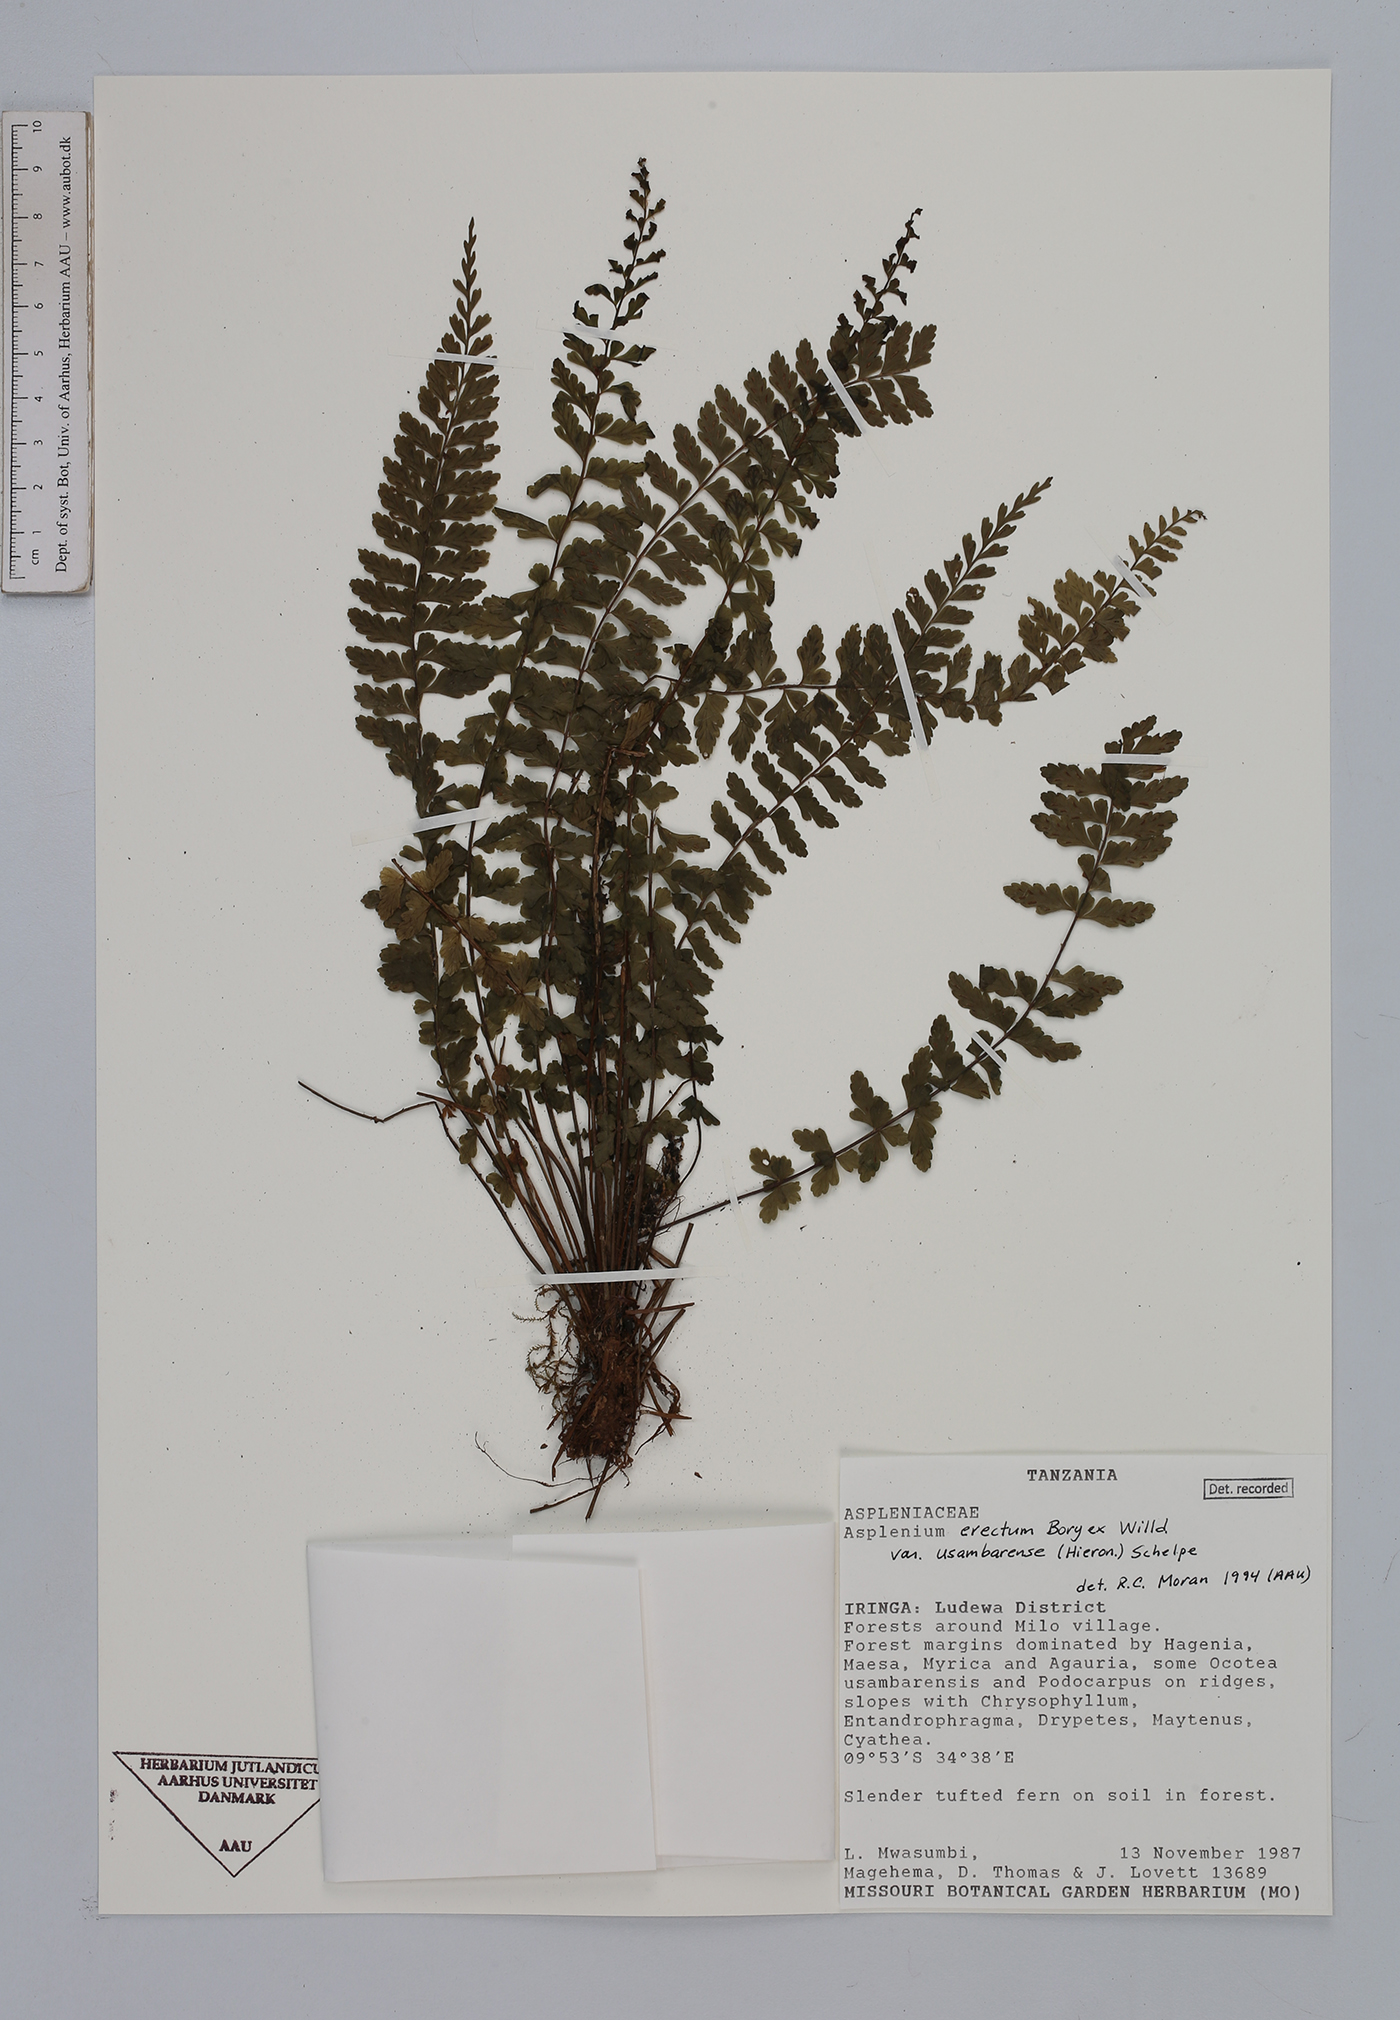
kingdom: Plantae
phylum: Tracheophyta
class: Polypodiopsida
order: Polypodiales
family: Aspleniaceae
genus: Asplenium
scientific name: Asplenium erectum
